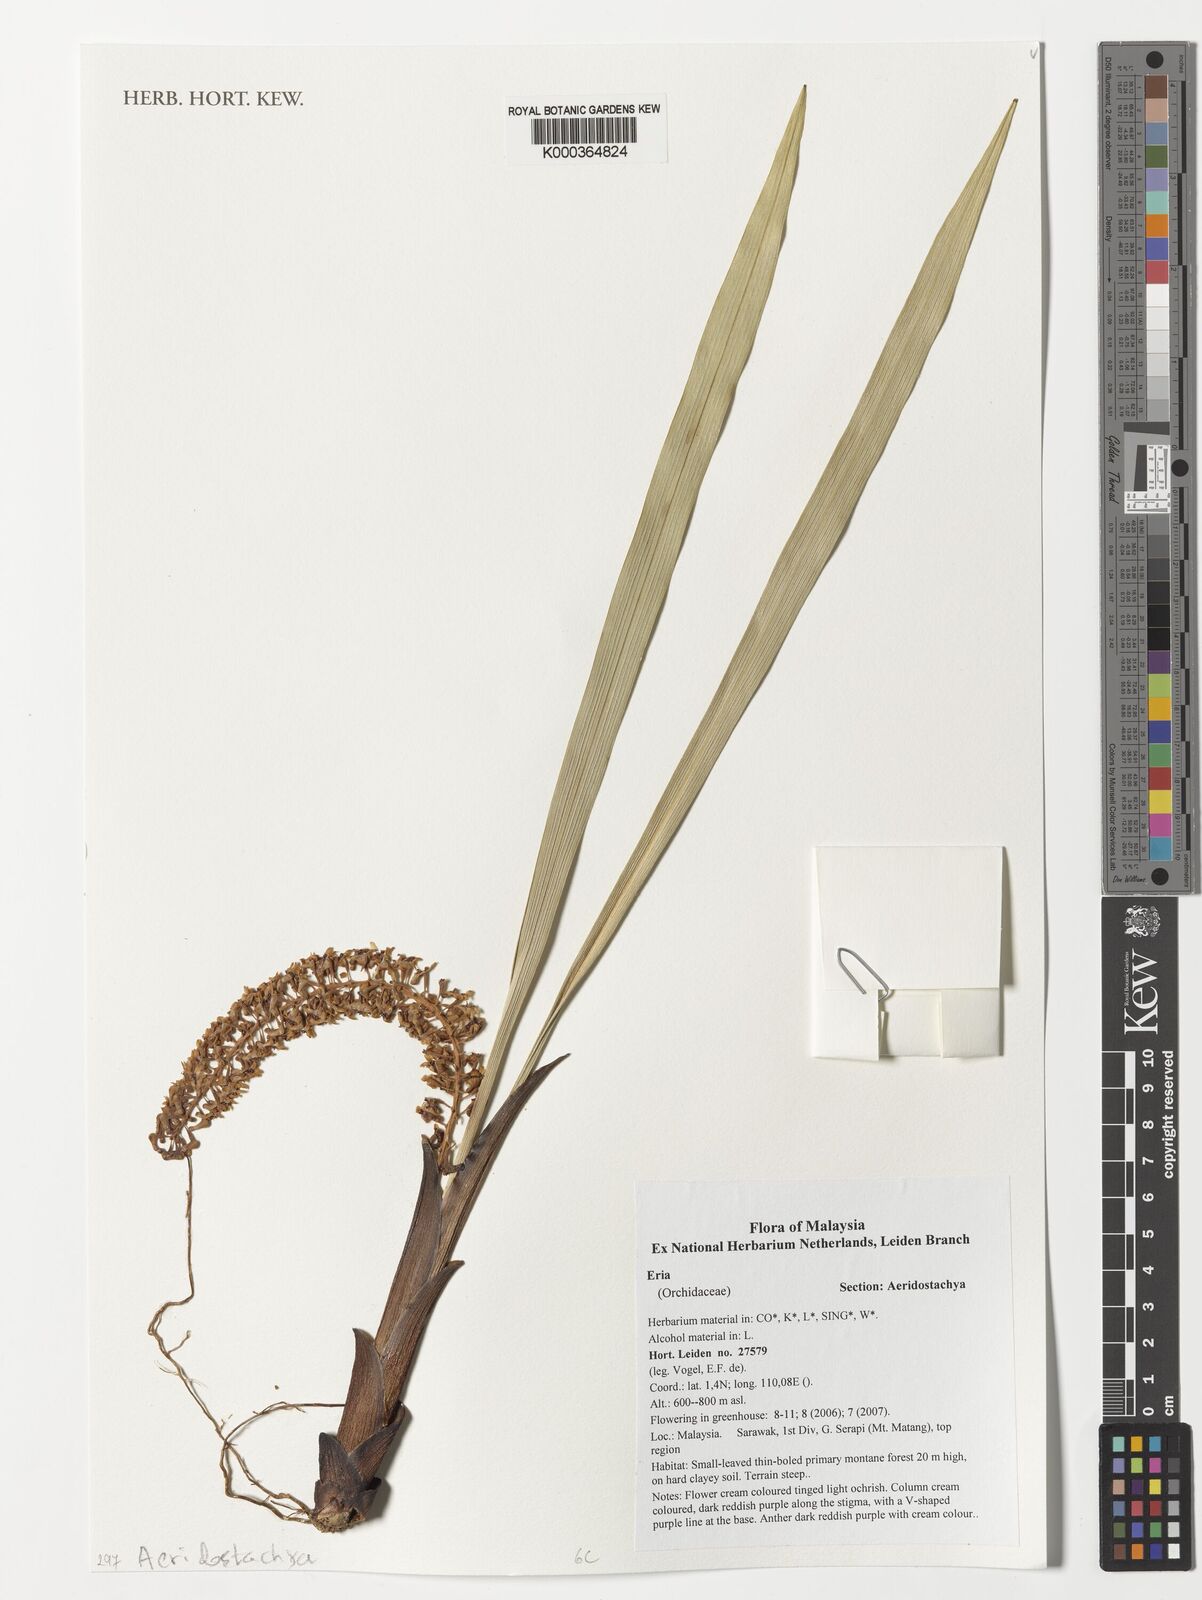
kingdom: Plantae
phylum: Tracheophyta
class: Liliopsida
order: Asparagales
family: Orchidaceae
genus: Eria
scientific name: Eria
